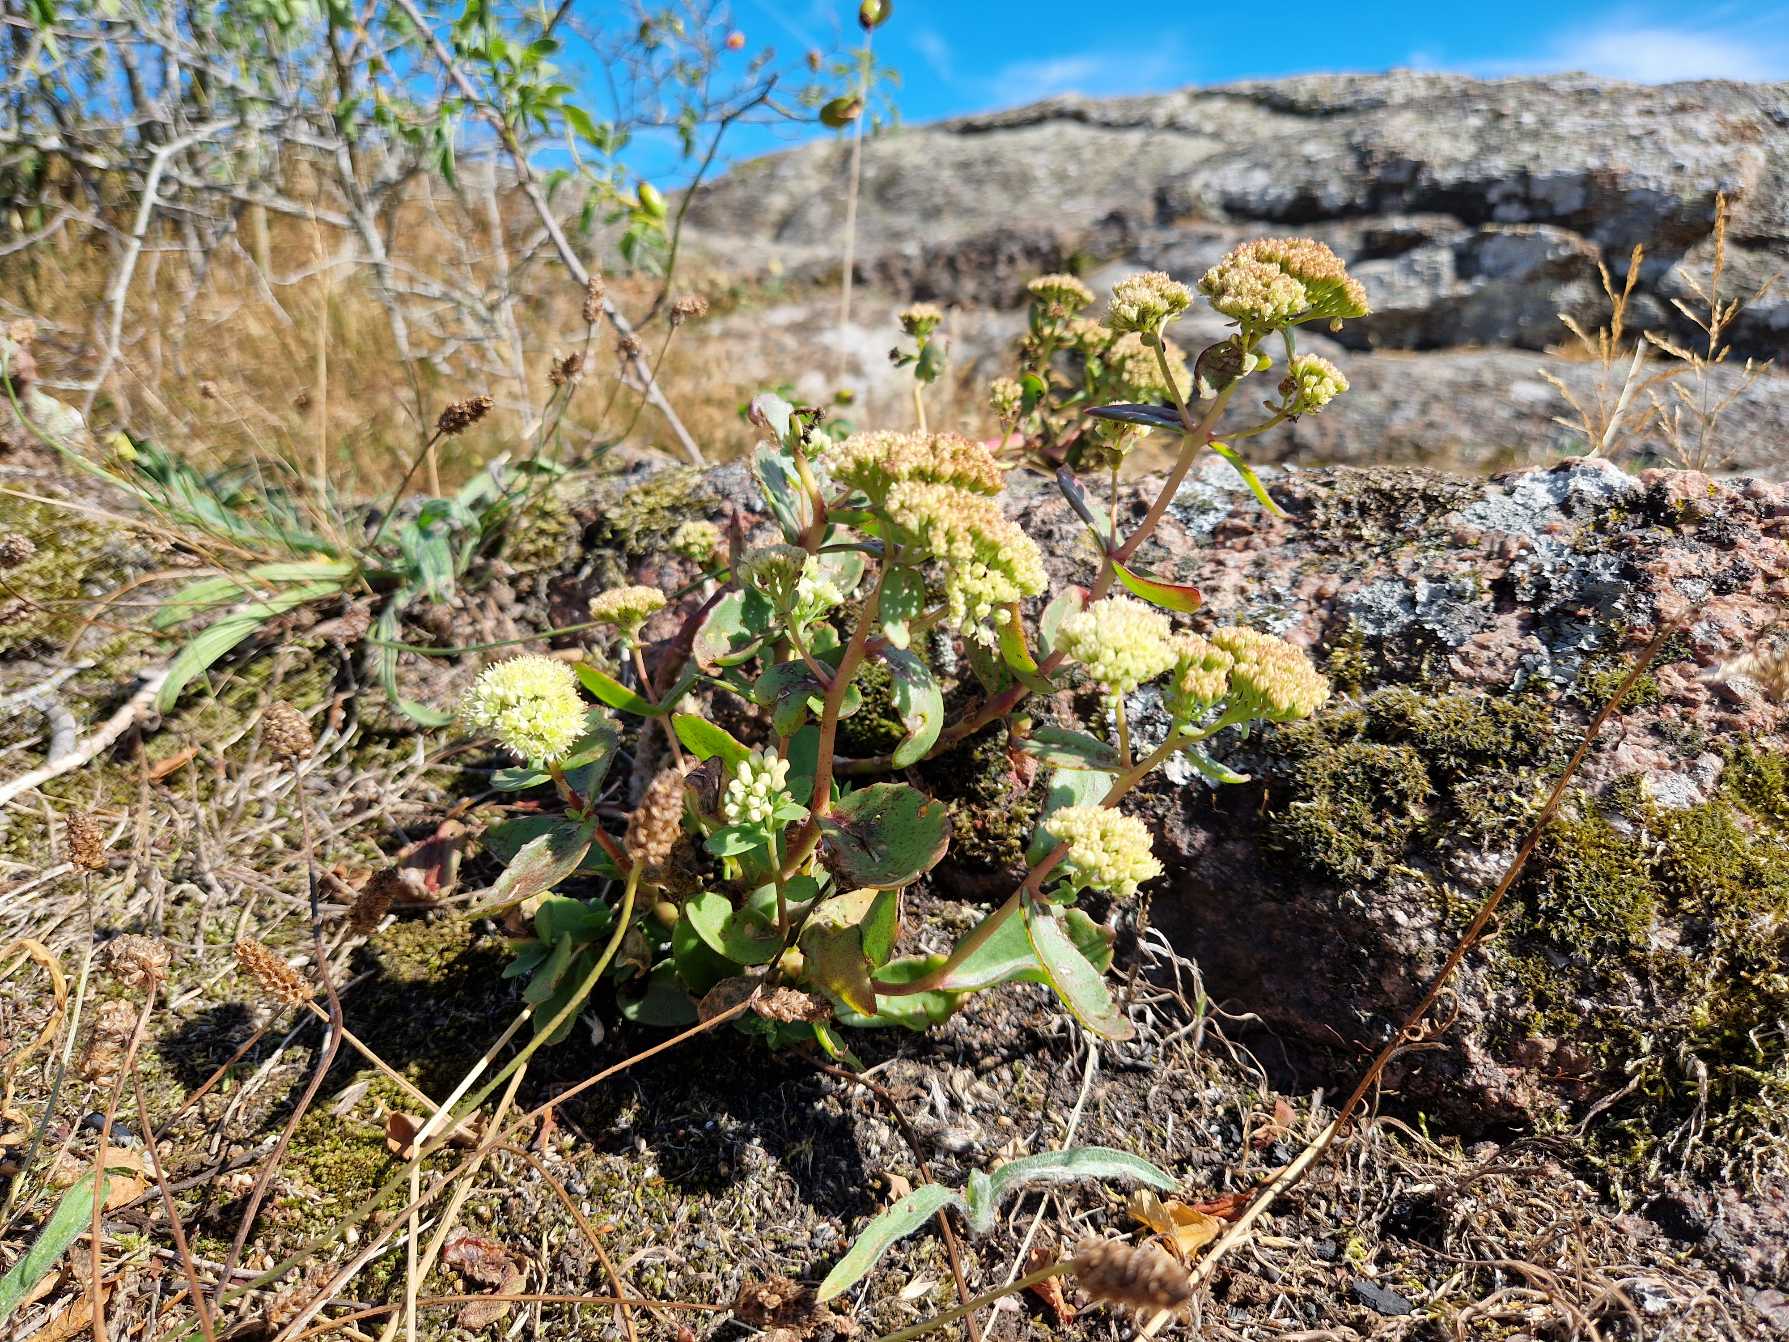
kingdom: Plantae
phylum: Tracheophyta
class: Magnoliopsida
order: Saxifragales
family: Crassulaceae
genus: Hylotelephium
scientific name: Hylotelephium maximum
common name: Almindelig sankthansurt
